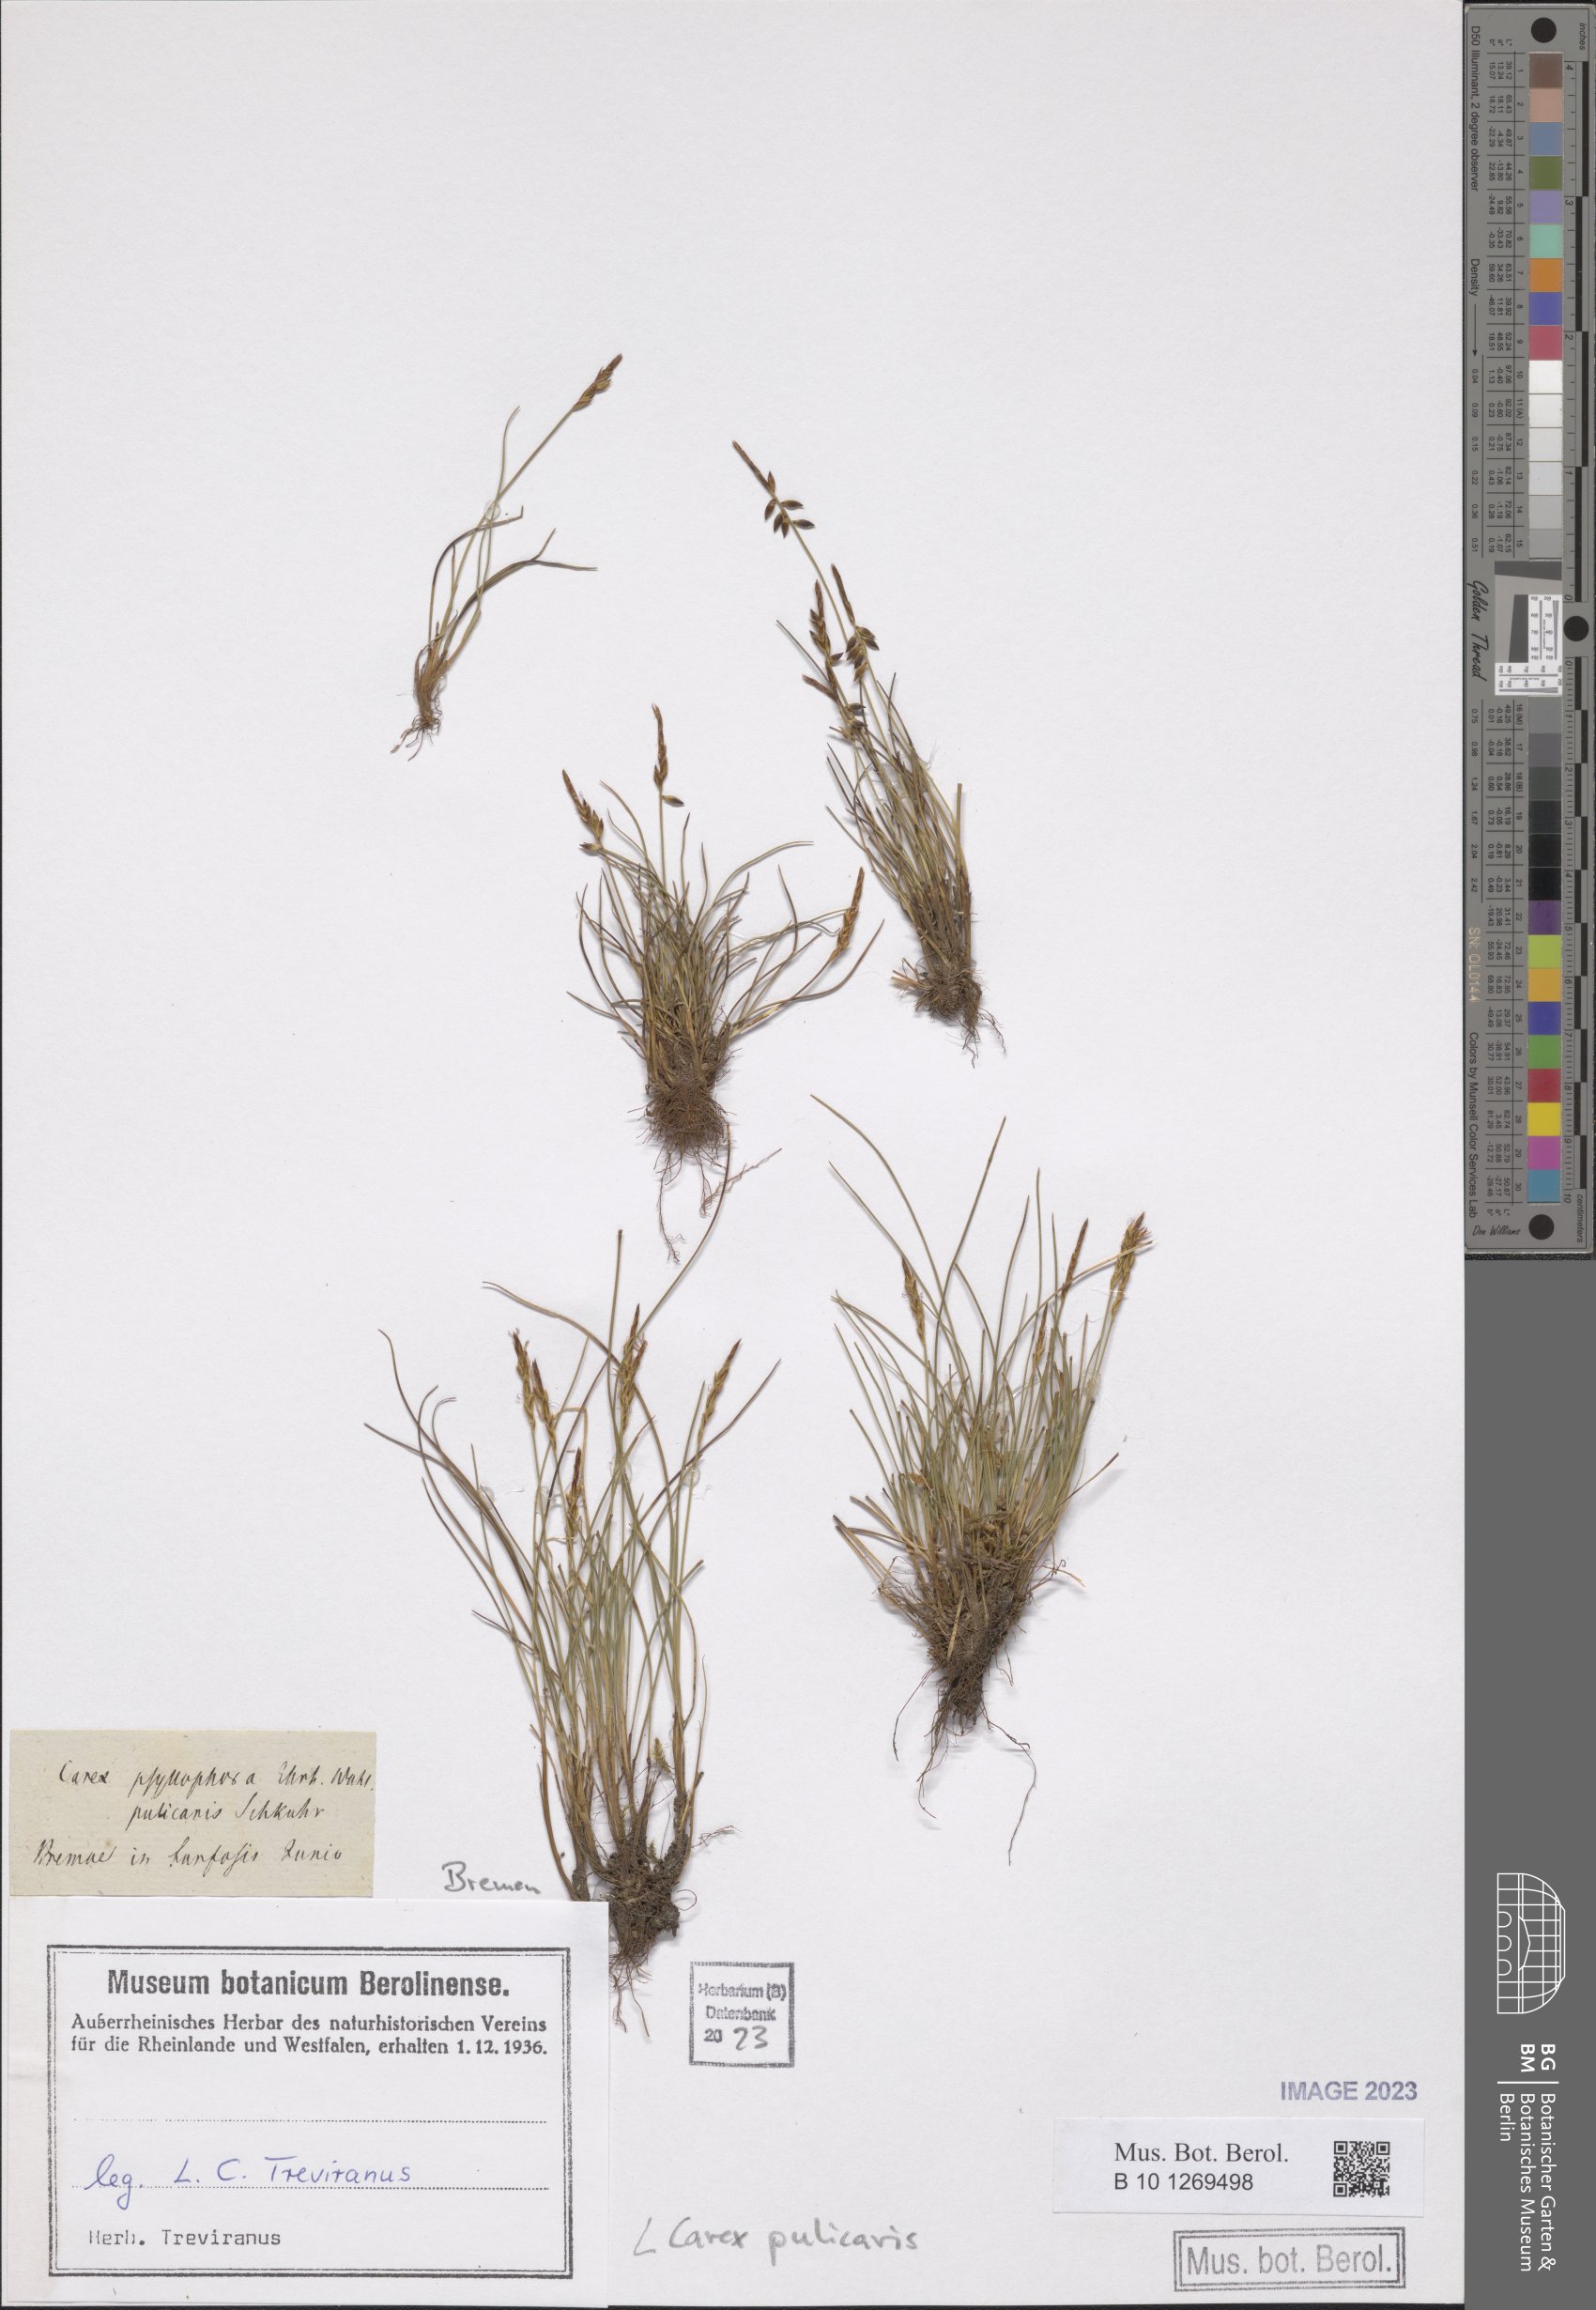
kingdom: Plantae
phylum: Tracheophyta
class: Liliopsida
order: Poales
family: Cyperaceae
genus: Carex
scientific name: Carex pulicaris
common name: Flea sedge
